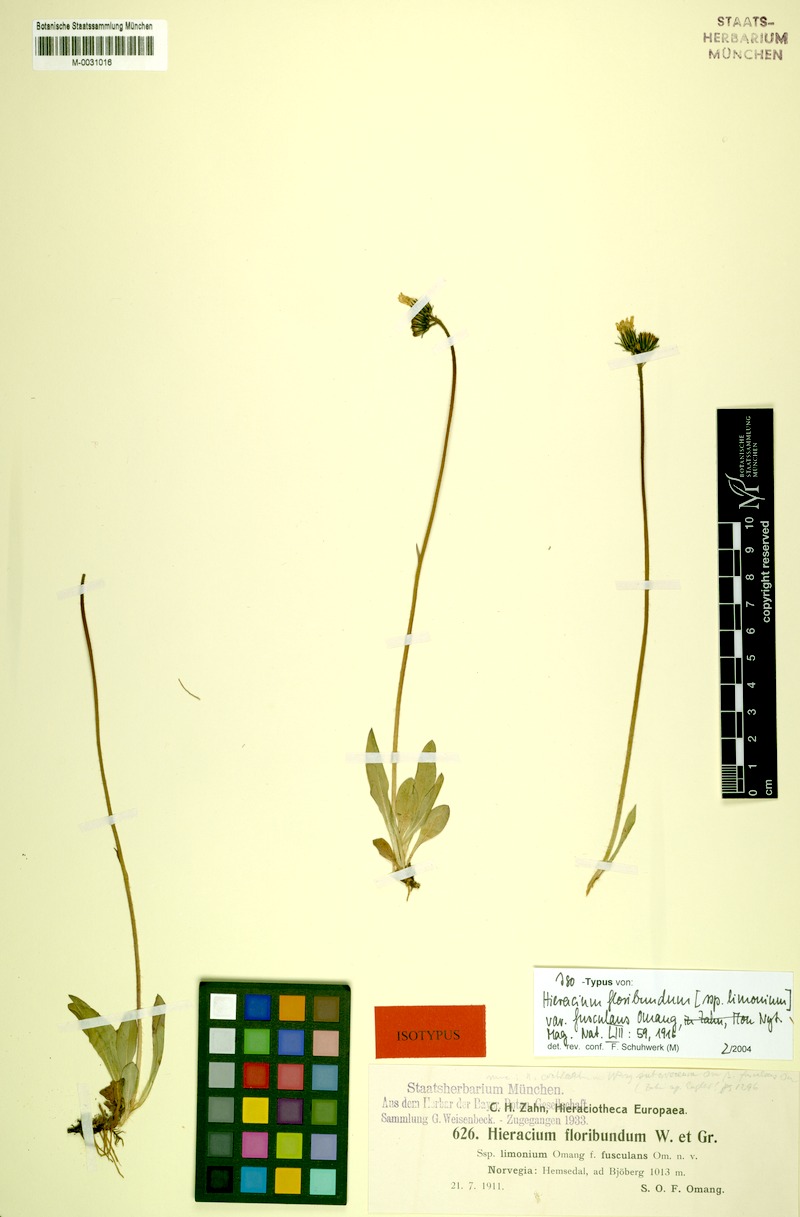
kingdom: Plantae
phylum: Tracheophyta
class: Magnoliopsida
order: Asterales
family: Asteraceae
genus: Pilosella
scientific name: Pilosella cochlearis
